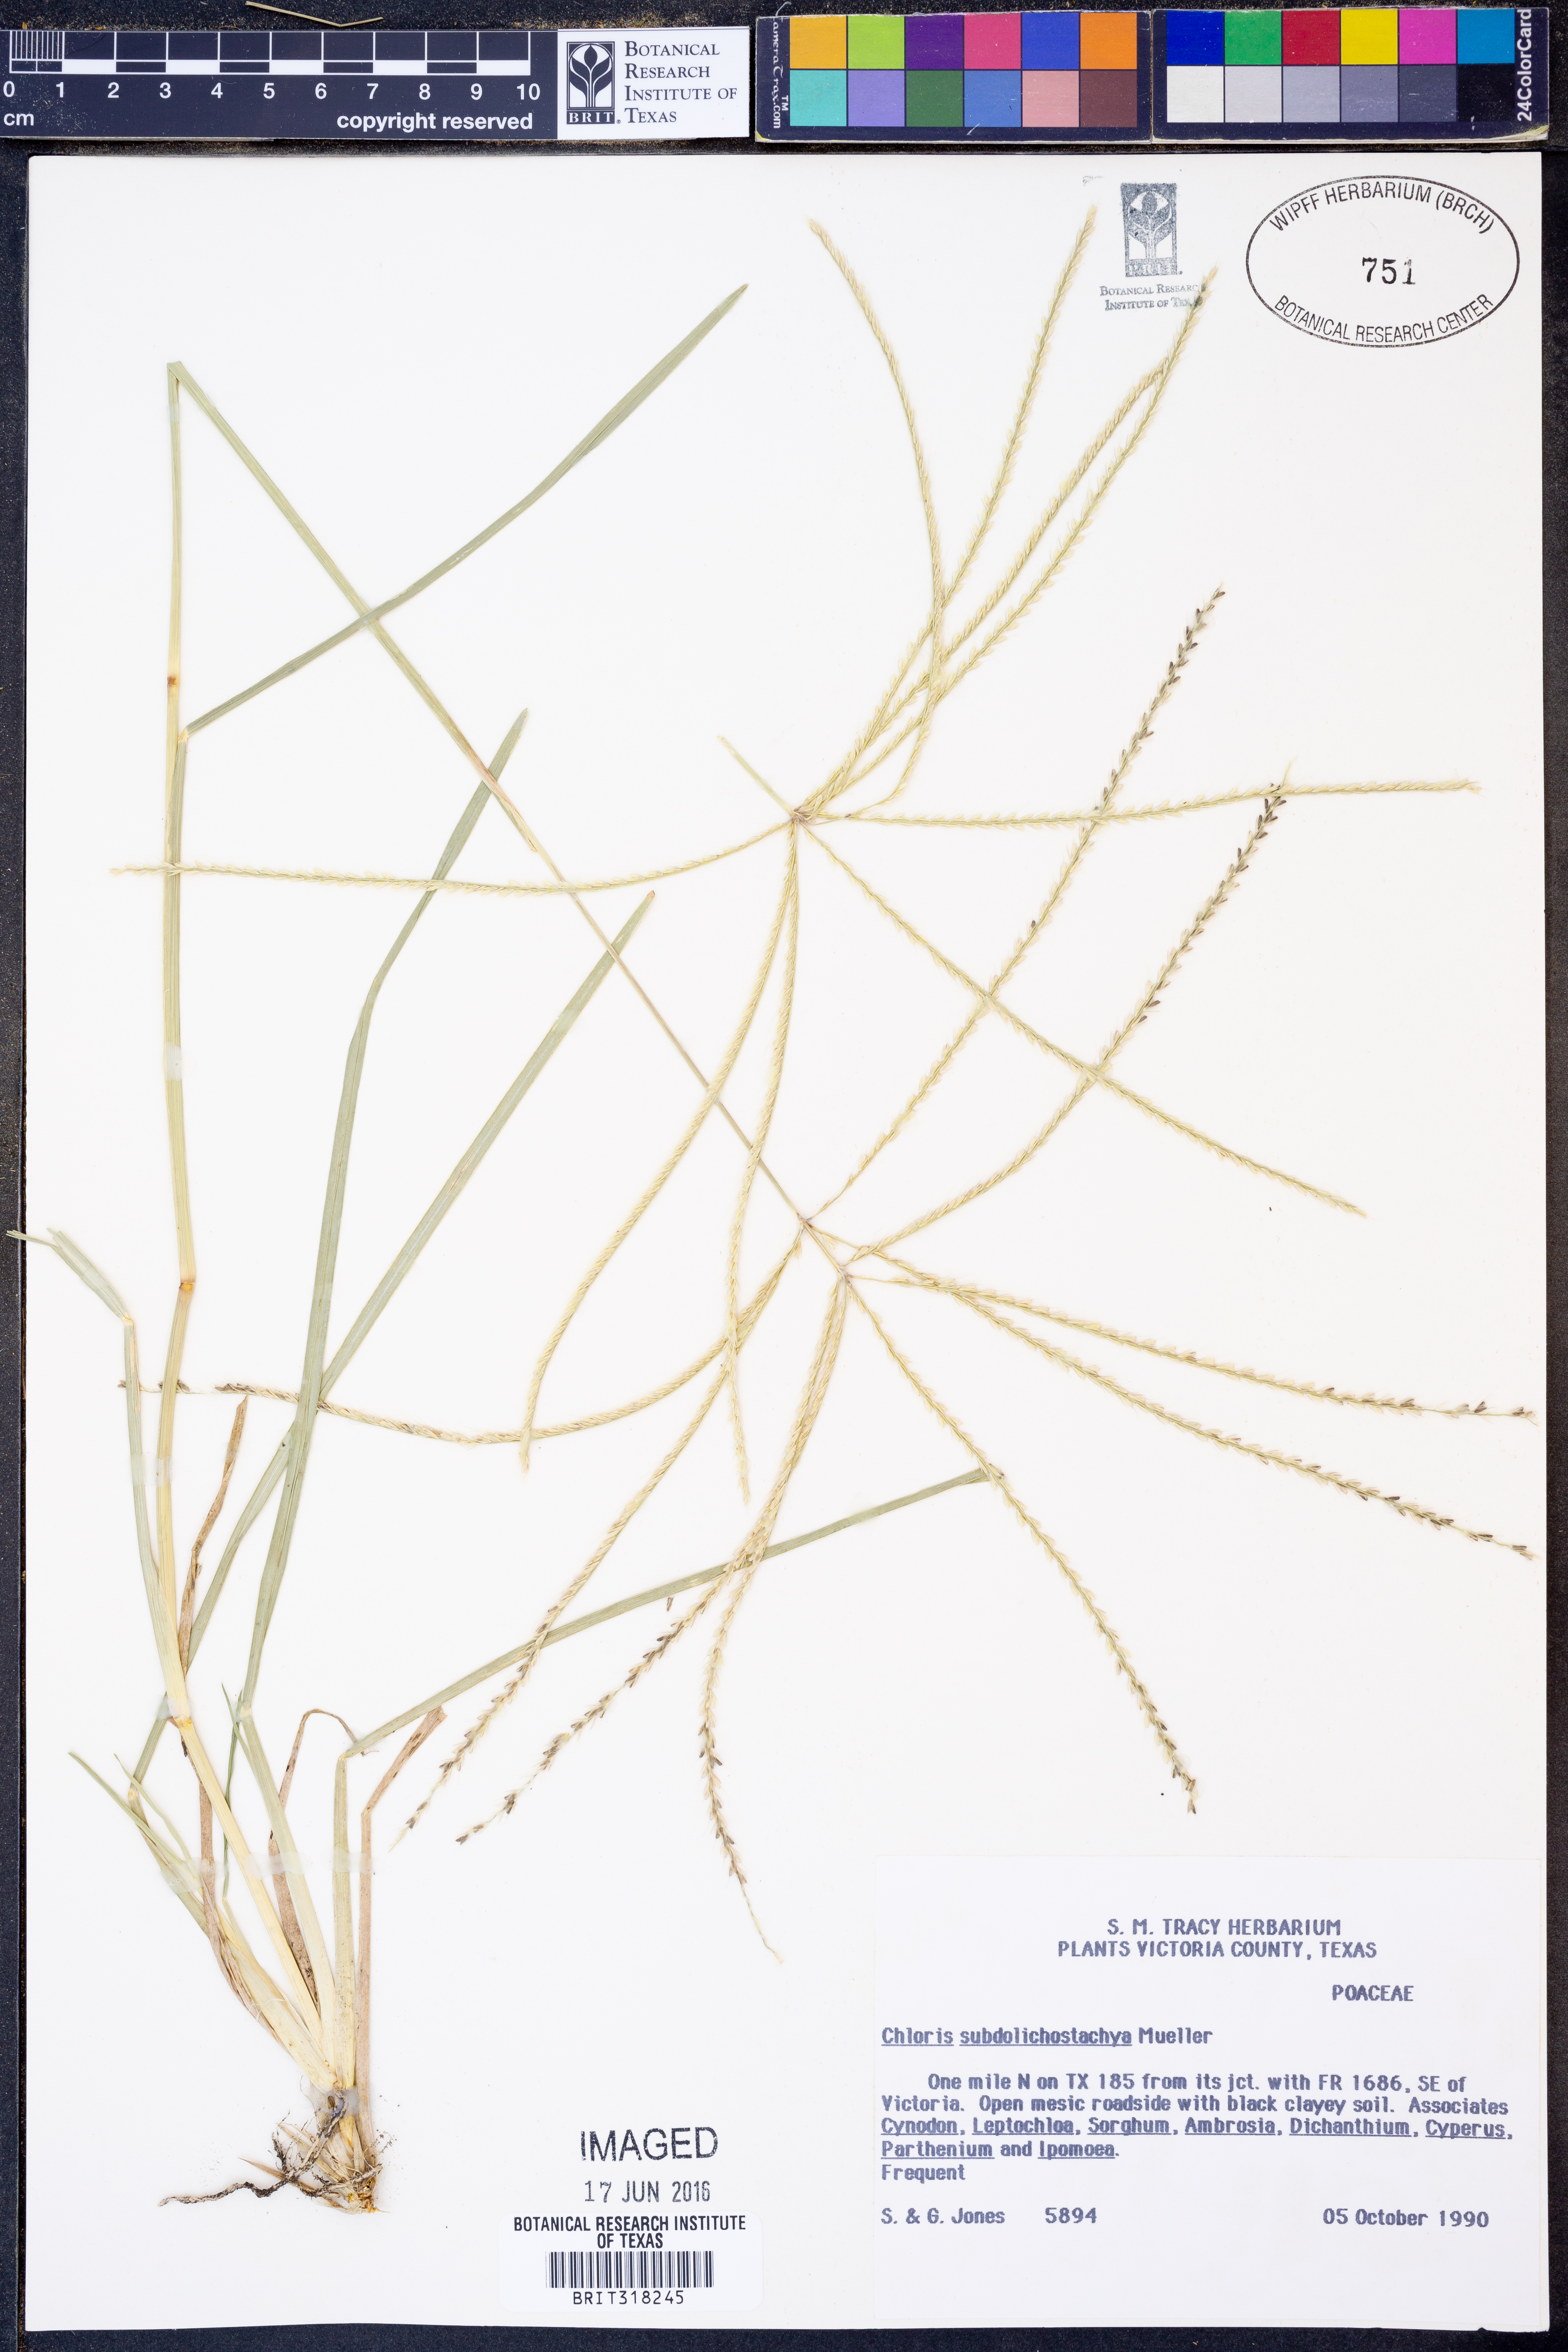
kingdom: Plantae
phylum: Tracheophyta
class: Liliopsida
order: Poales
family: Poaceae
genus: Chloris
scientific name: Chloris subdolichostachya
